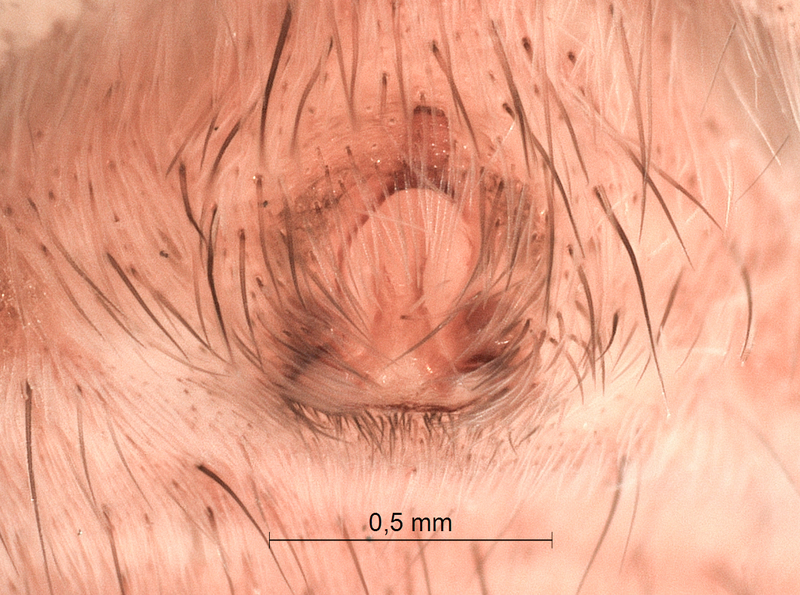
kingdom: Animalia
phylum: Arthropoda
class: Arachnida
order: Araneae
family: Lycosidae
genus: Alopecosa
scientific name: Alopecosa cuneata
